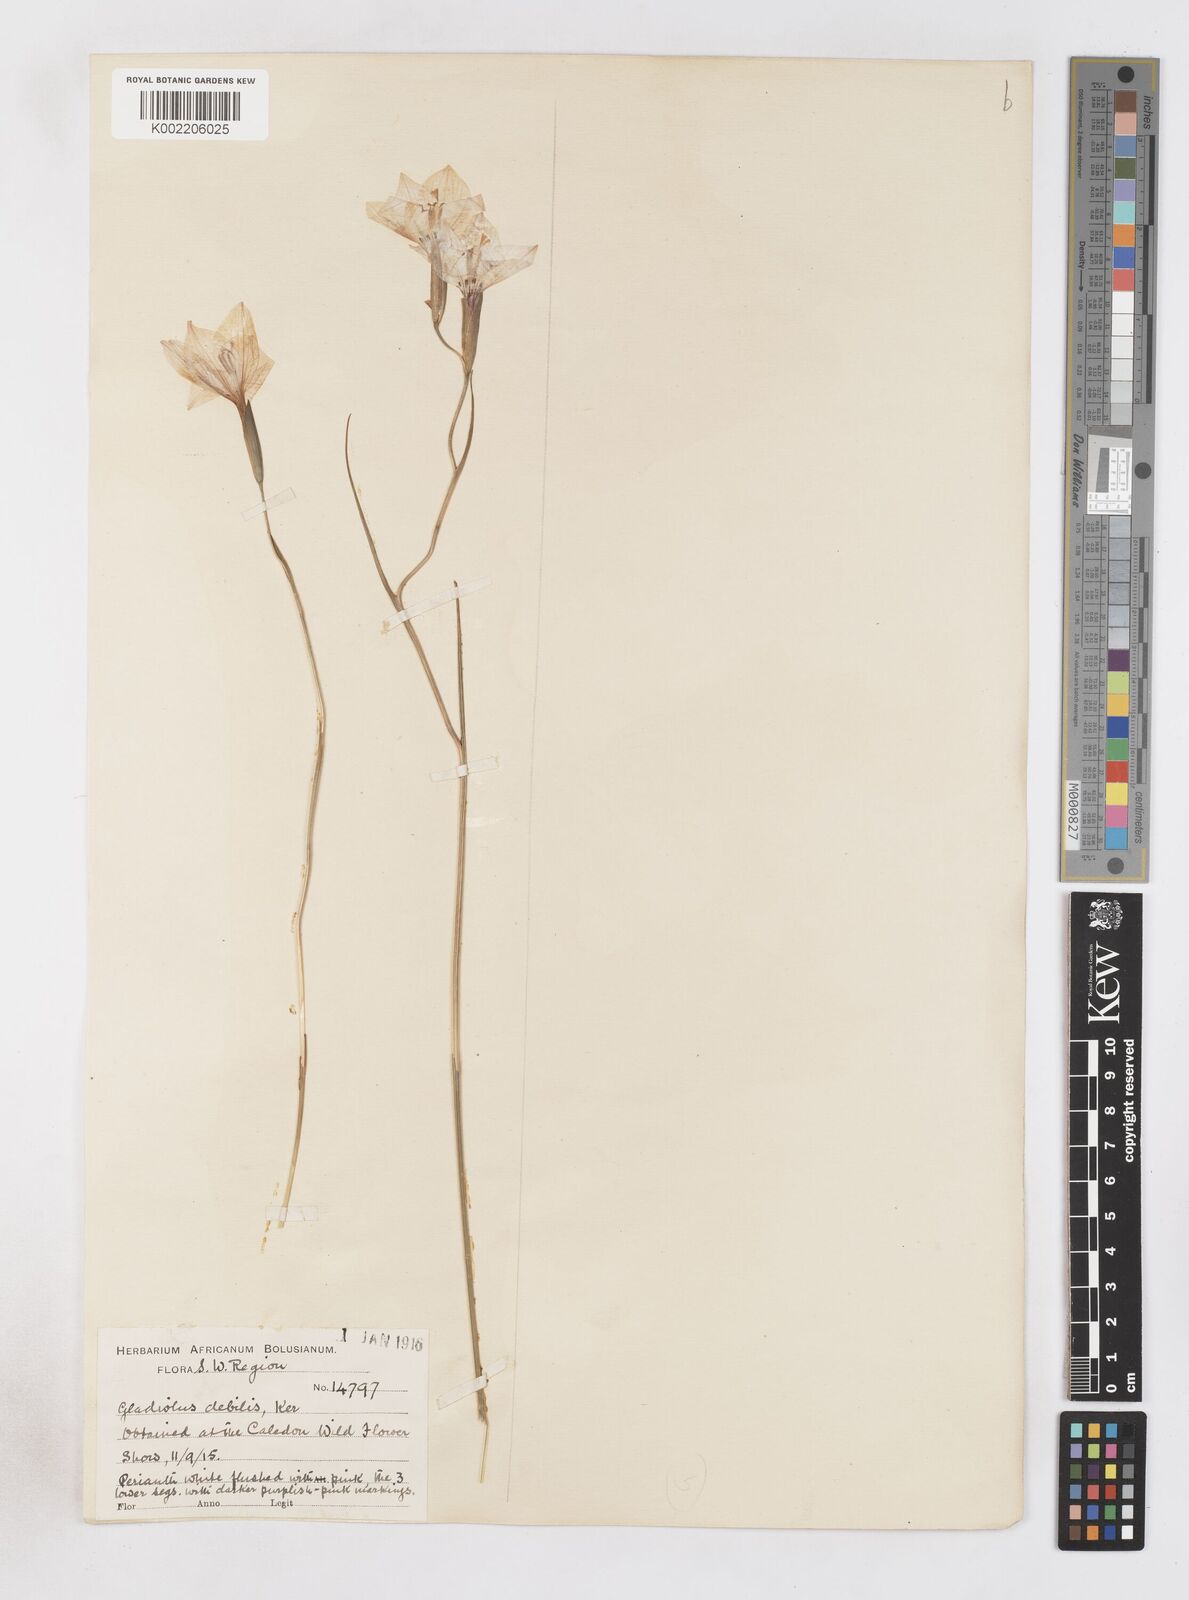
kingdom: Plantae
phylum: Tracheophyta
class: Liliopsida
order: Asparagales
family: Iridaceae
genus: Gladiolus
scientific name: Gladiolus debilis
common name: Painted-lady
